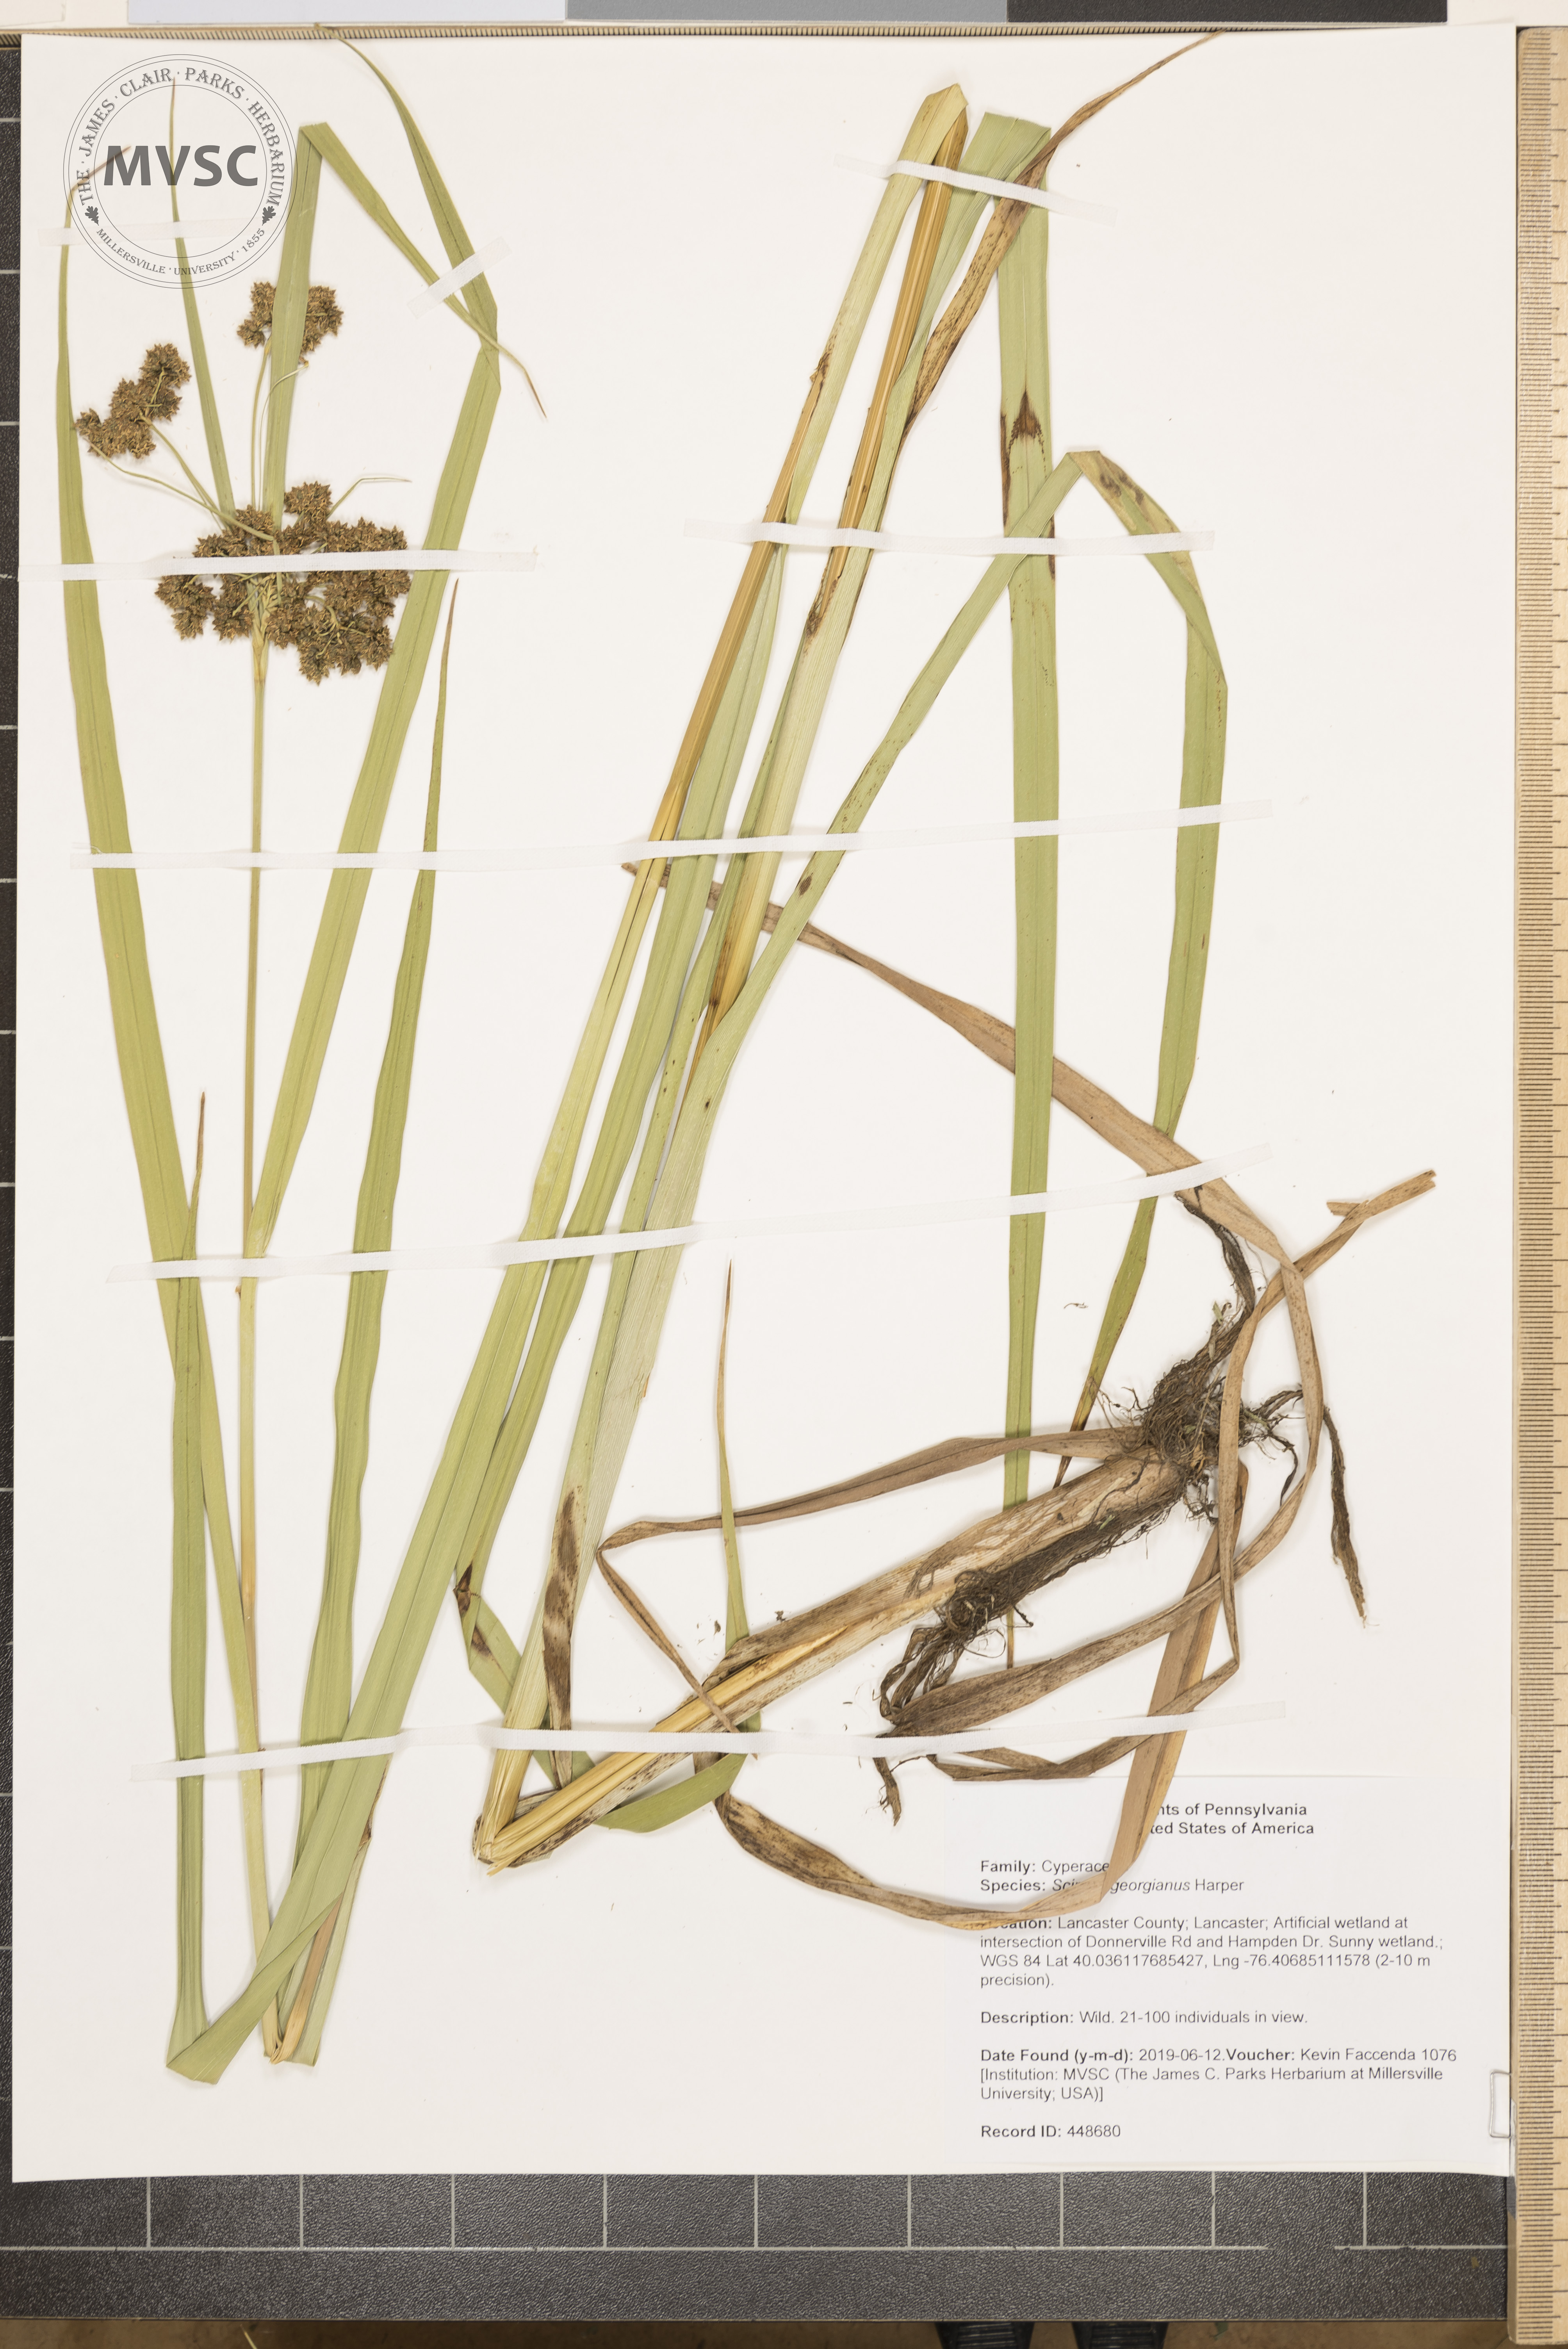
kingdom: Plantae
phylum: Tracheophyta
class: Liliopsida
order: Poales
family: Cyperaceae
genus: Scirpus
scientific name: Scirpus georgianus
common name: Bristleless dark-green bulrush
